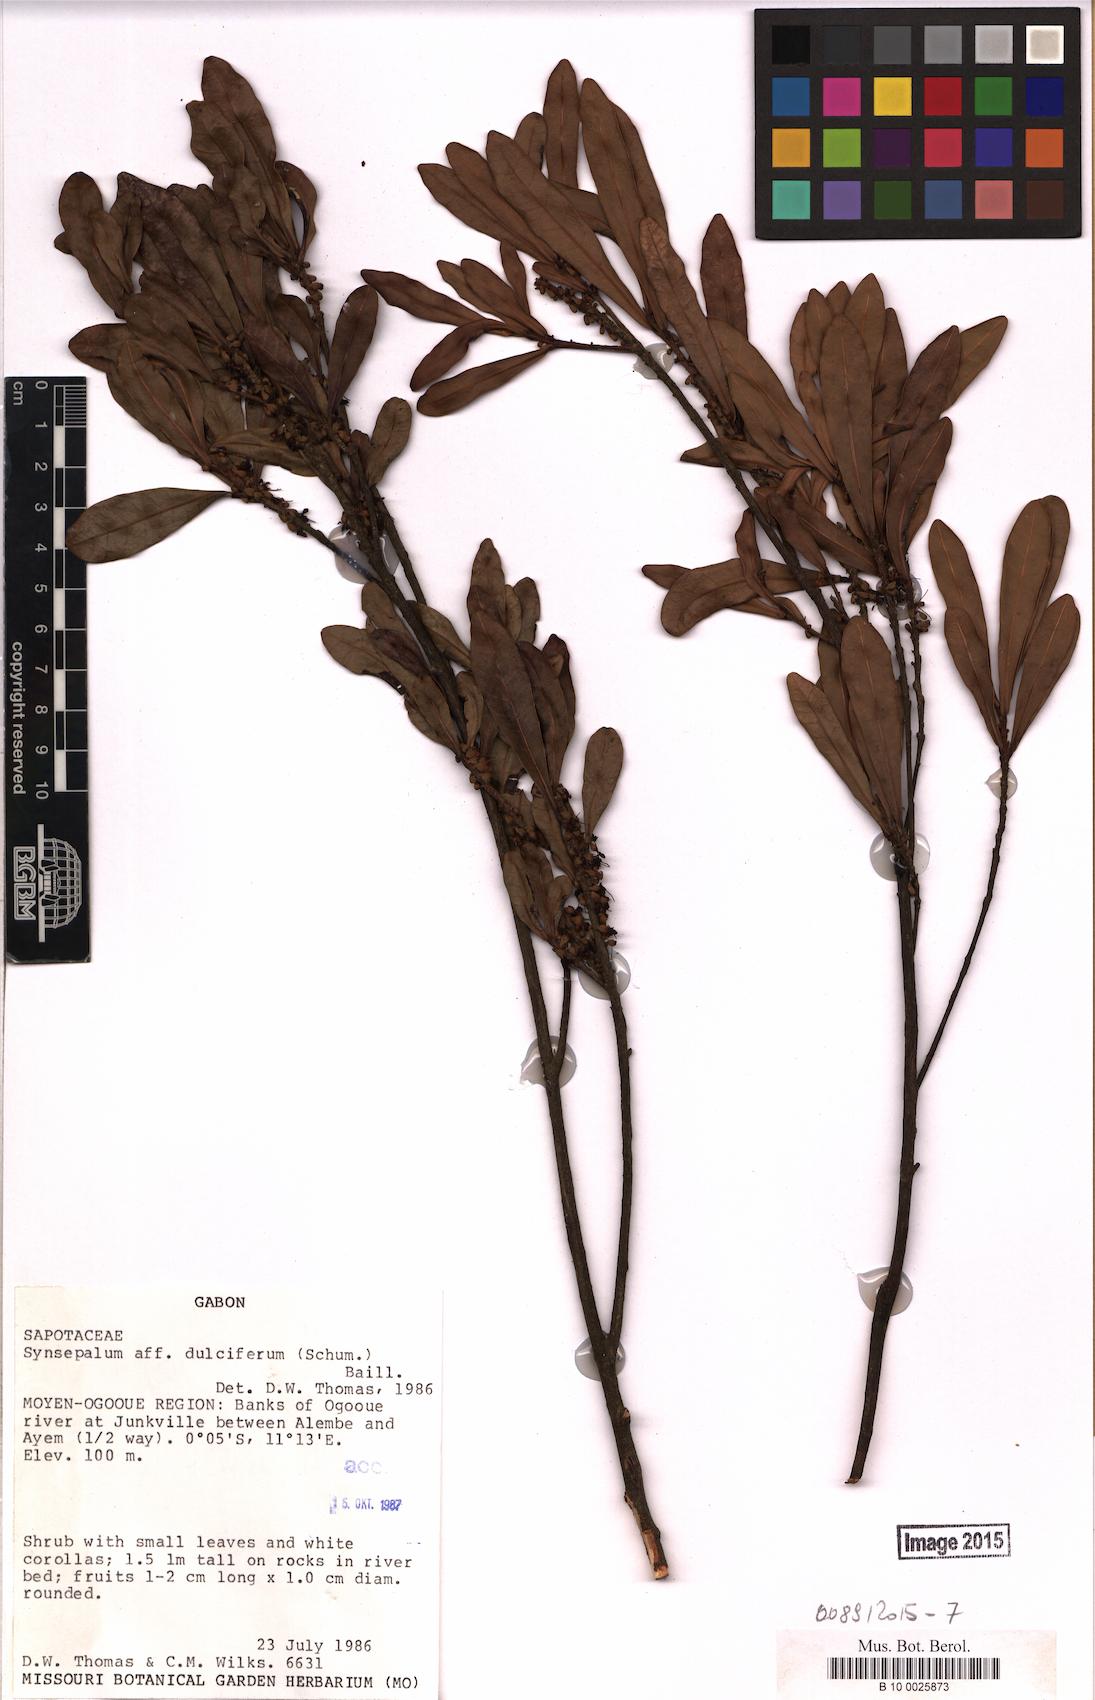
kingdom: Plantae
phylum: Tracheophyta
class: Magnoliopsida
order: Ericales
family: Sapotaceae
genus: Synsepalum
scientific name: Synsepalum dulcificum
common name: Miracle-fruit
